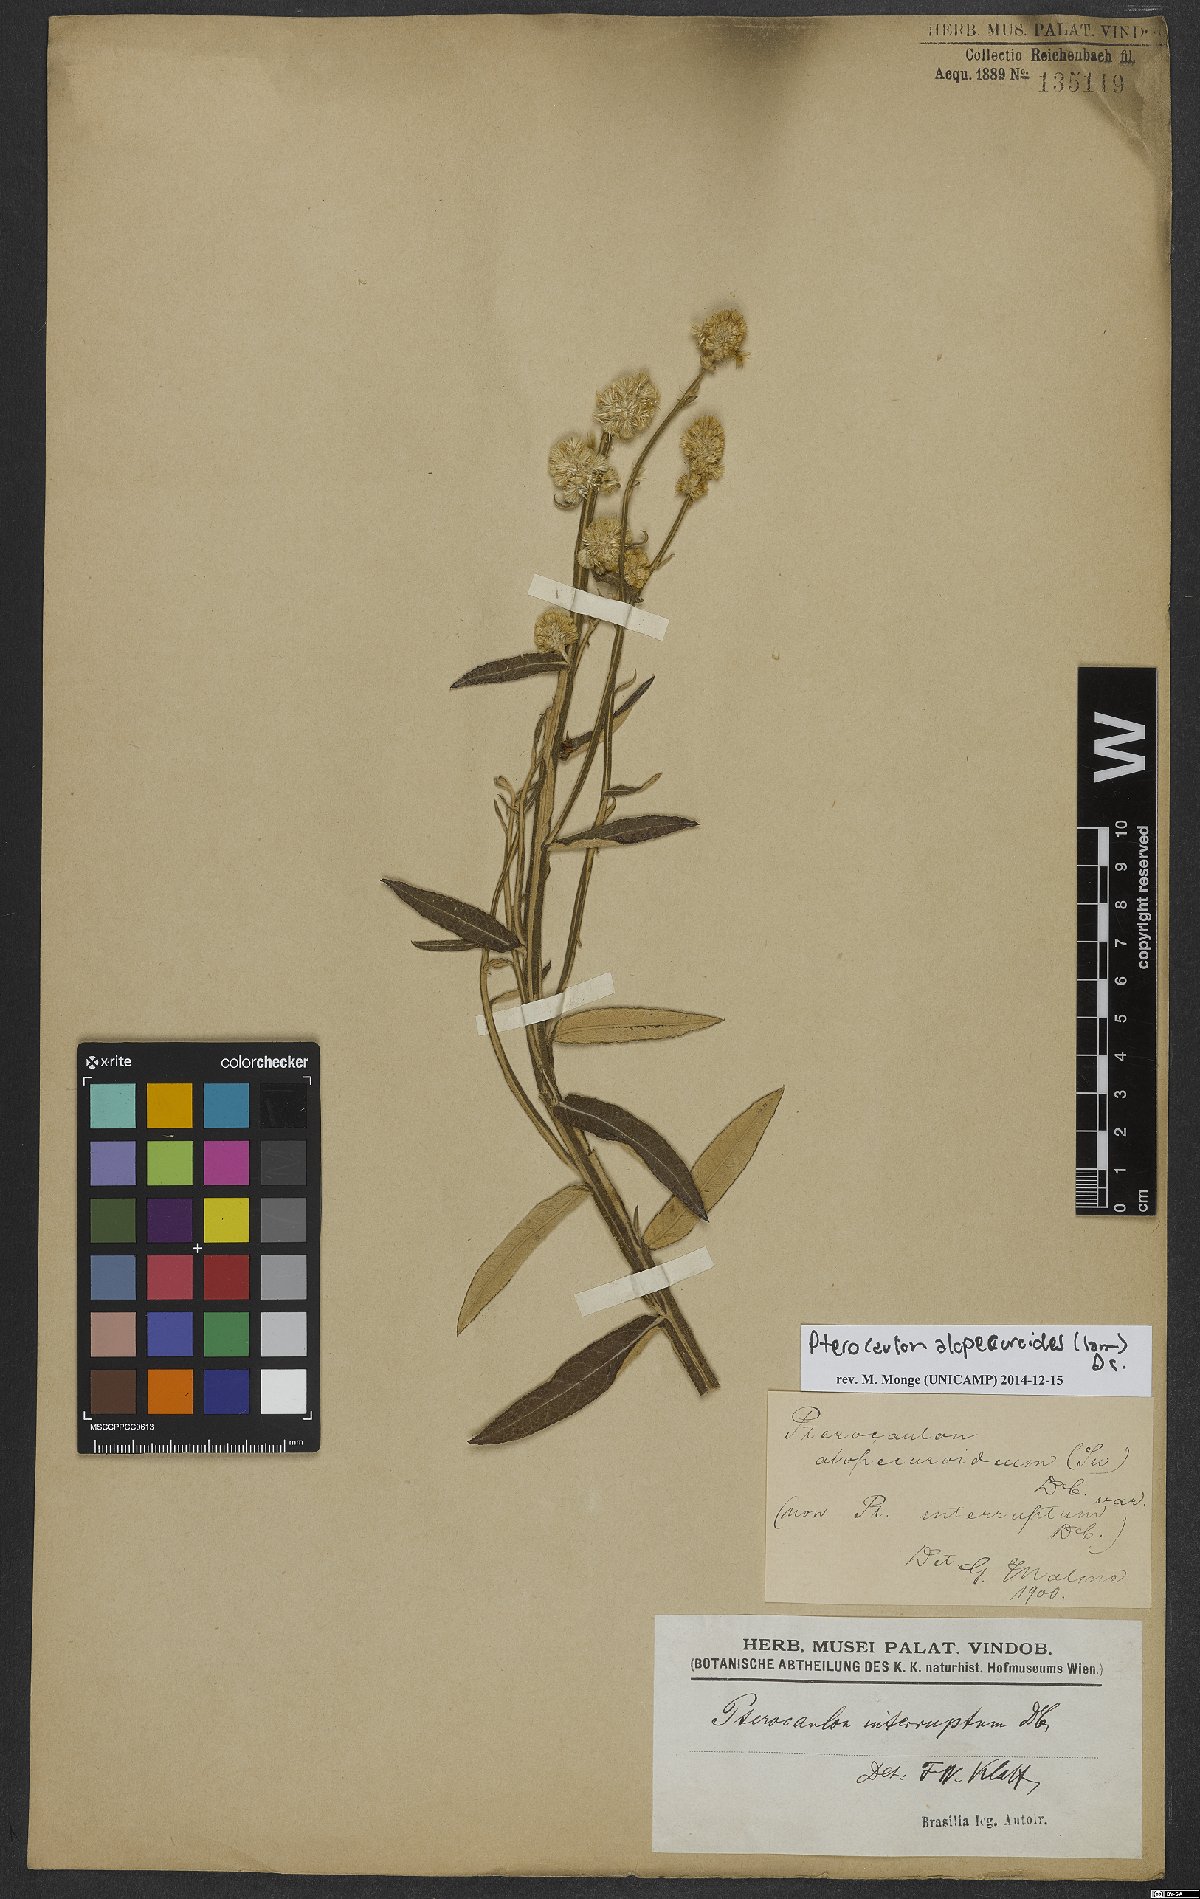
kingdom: Plantae
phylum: Tracheophyta
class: Magnoliopsida
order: Asterales
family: Asteraceae
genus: Pterocaulon
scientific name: Pterocaulon alopecuroides
